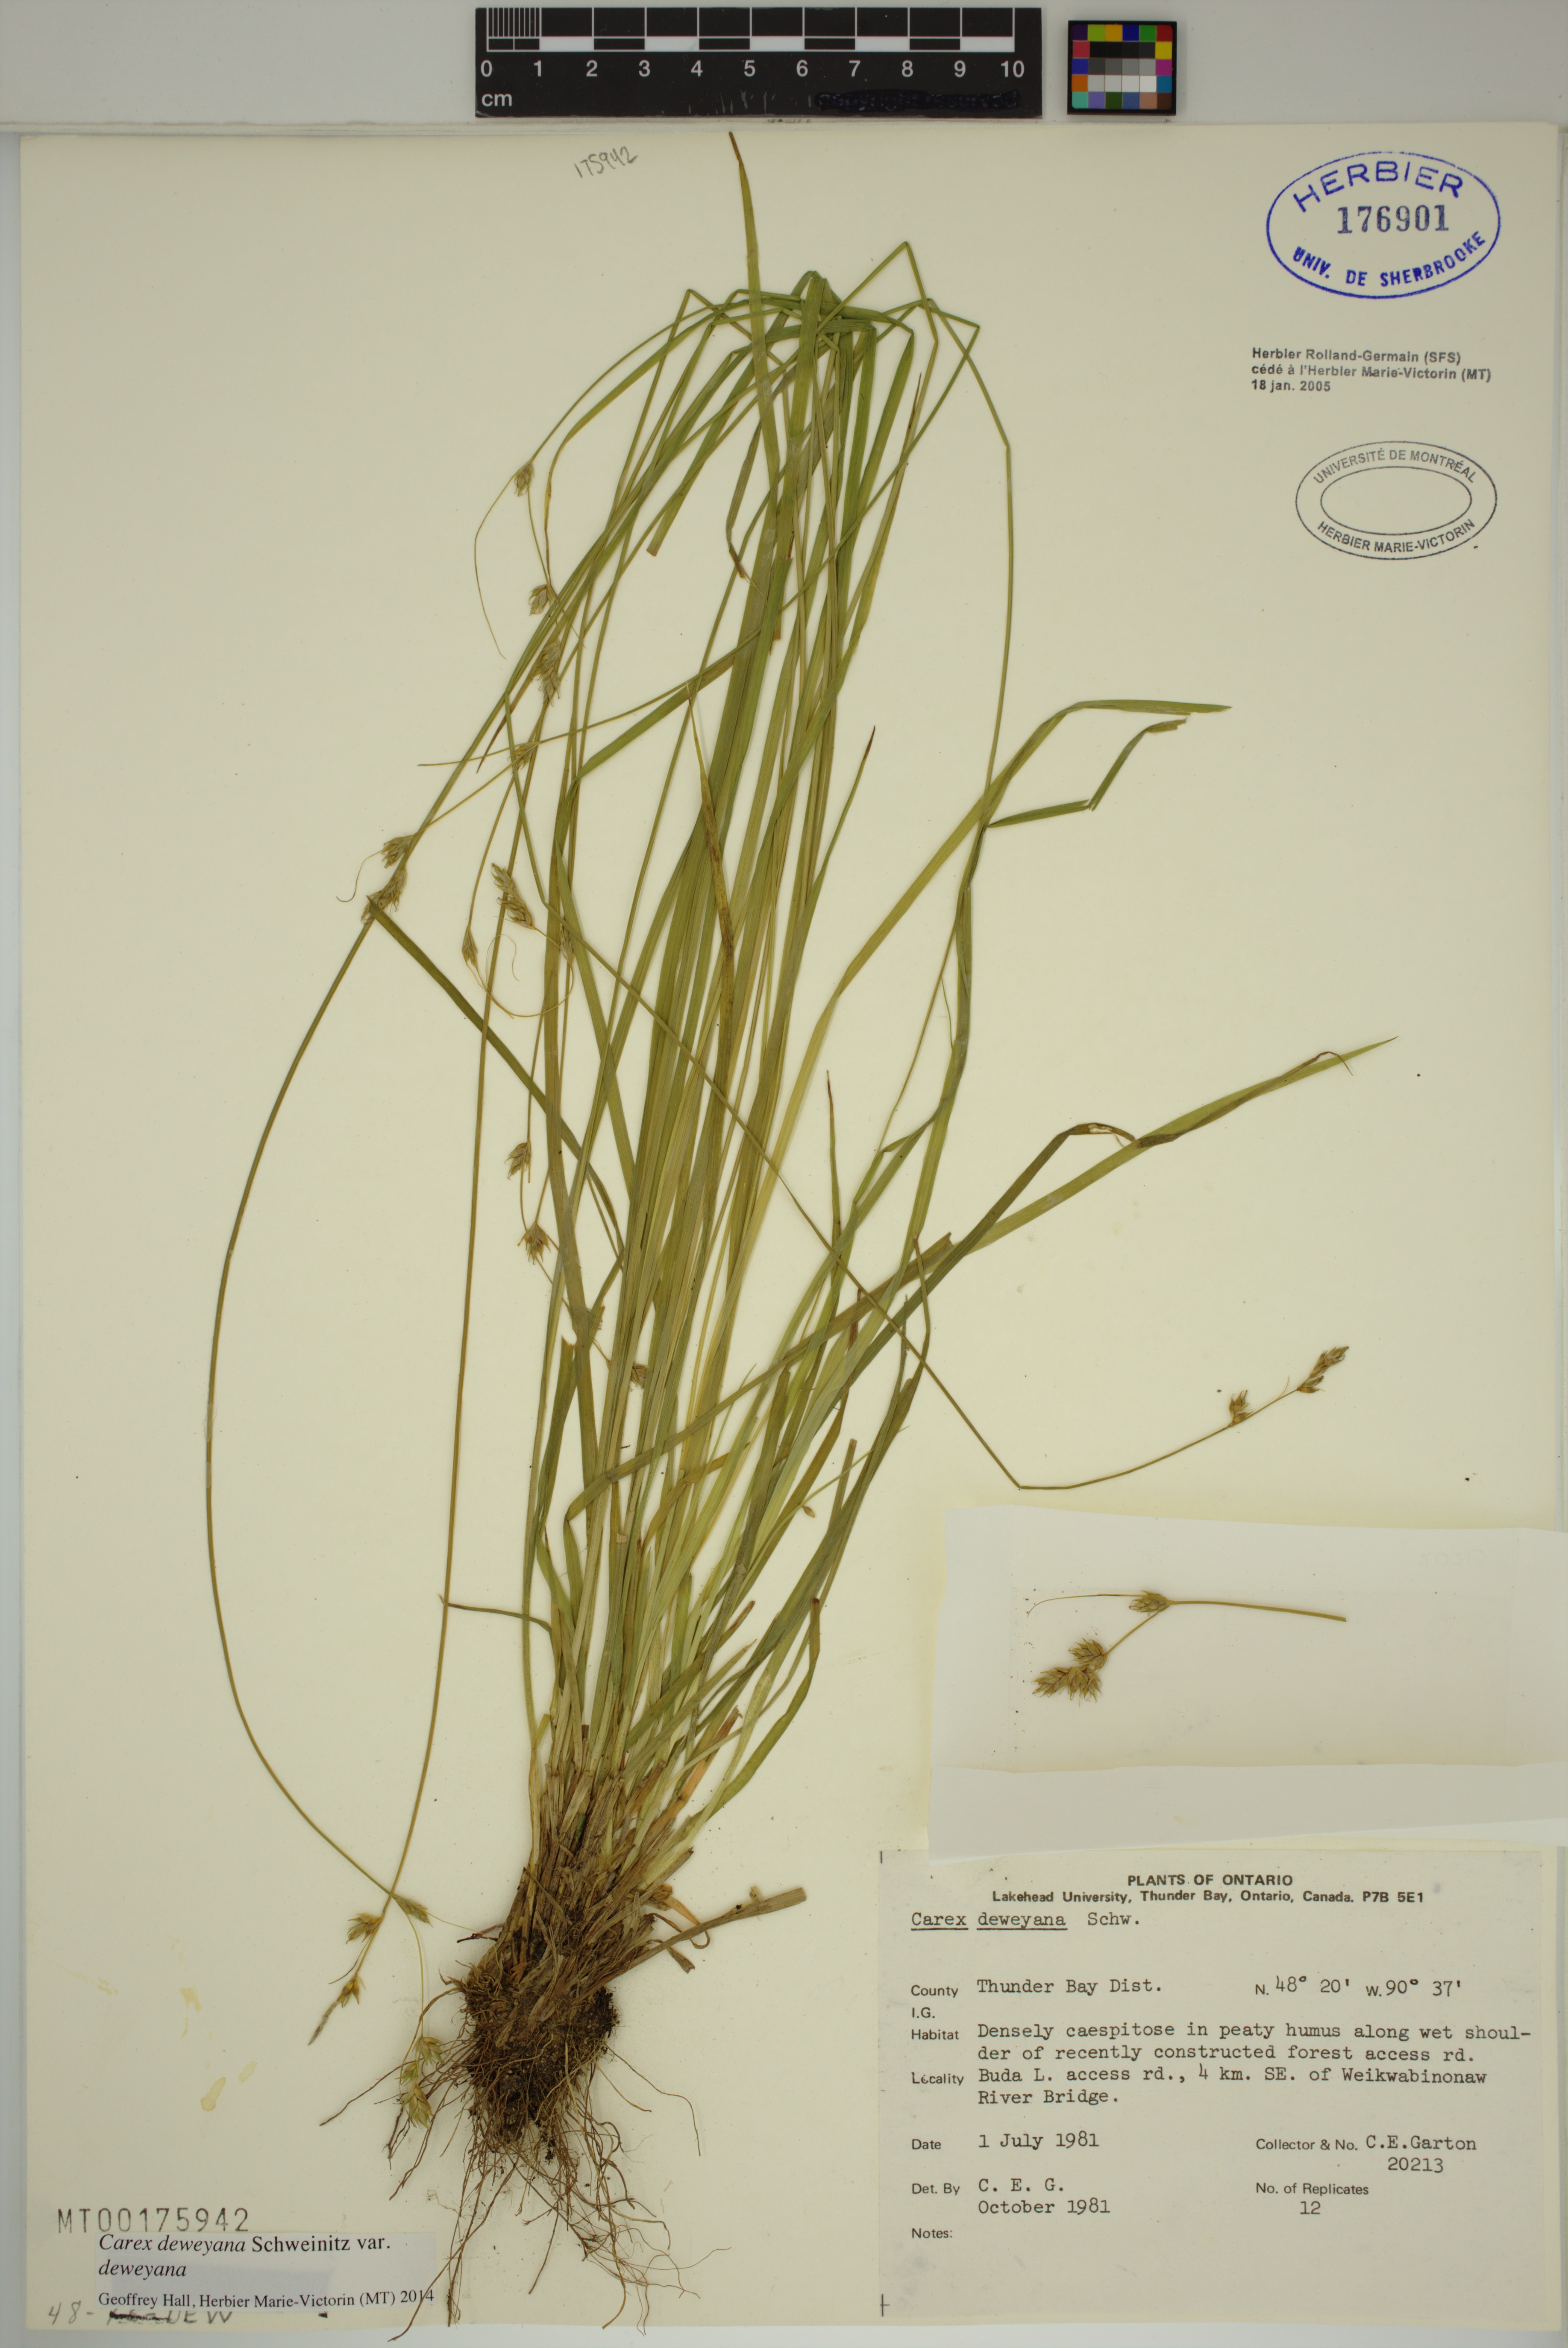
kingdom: Plantae
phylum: Tracheophyta
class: Liliopsida
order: Poales
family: Cyperaceae
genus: Carex
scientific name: Carex deweyana
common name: Dewey's sedge
